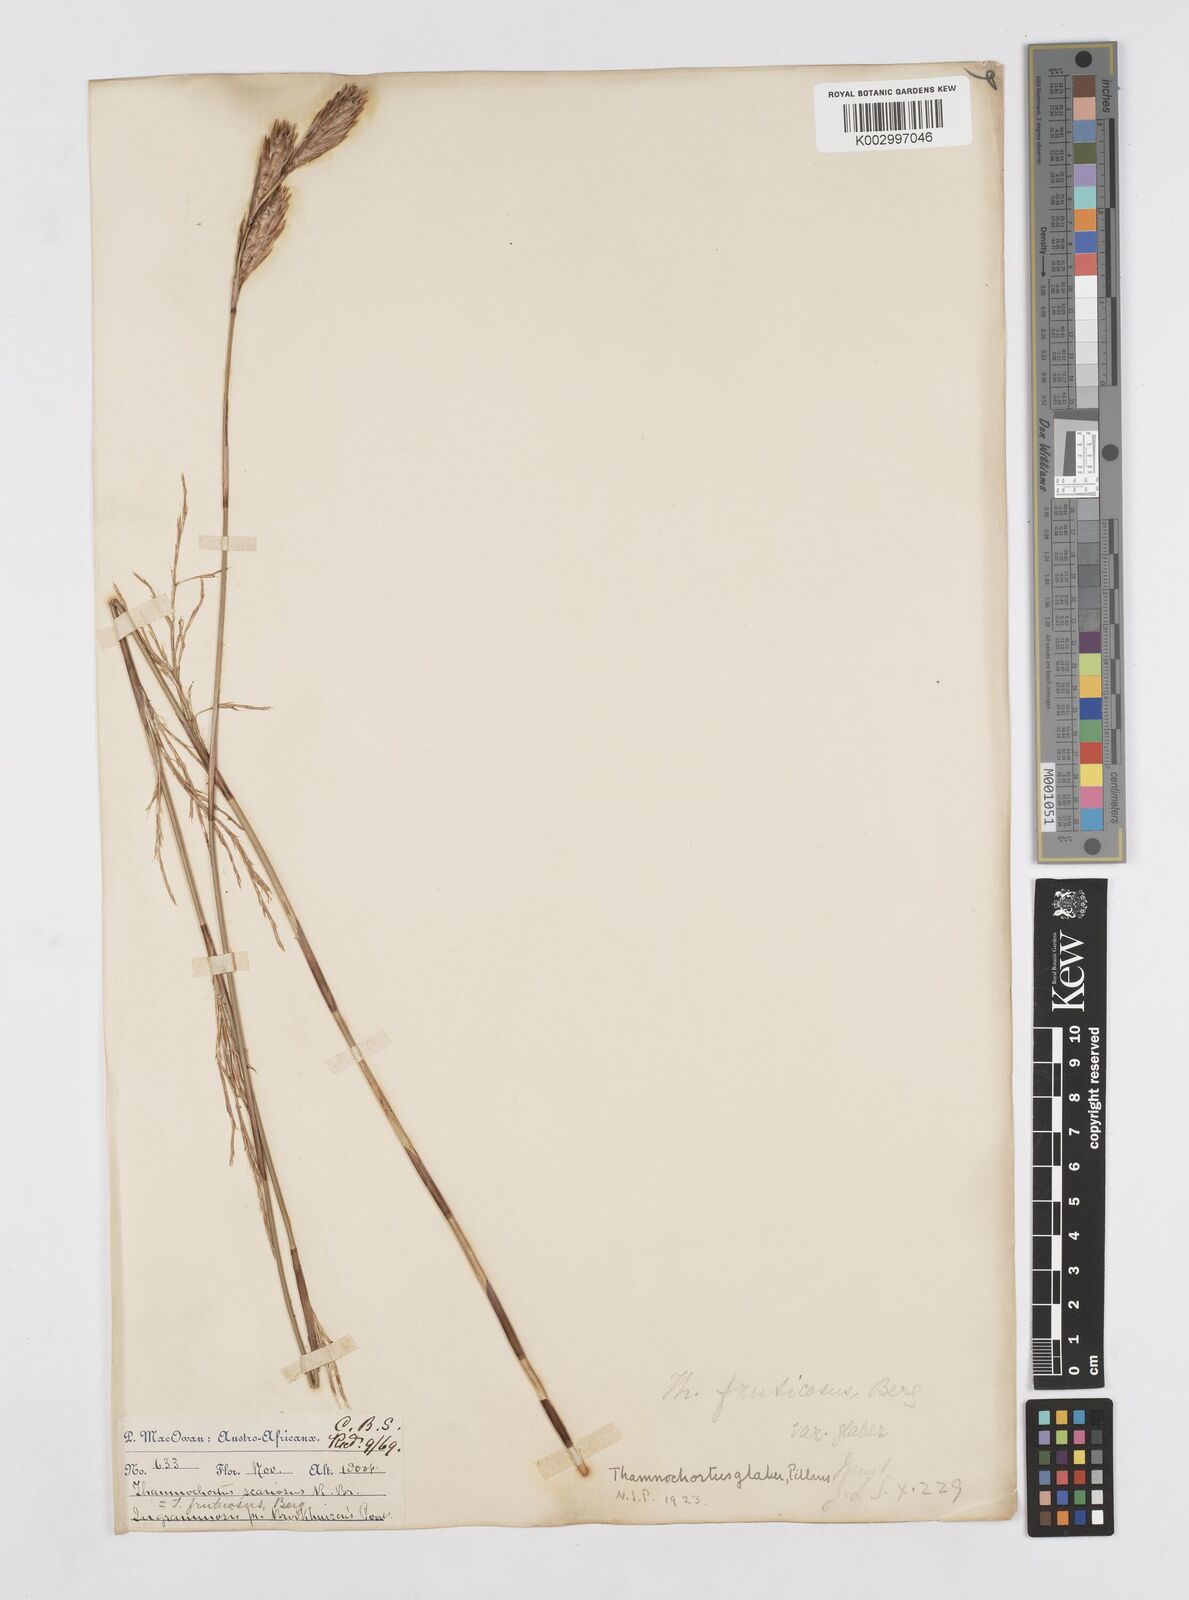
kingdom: Plantae
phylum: Tracheophyta
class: Liliopsida
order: Poales
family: Restionaceae
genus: Thamnochortus
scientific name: Thamnochortus glaber
